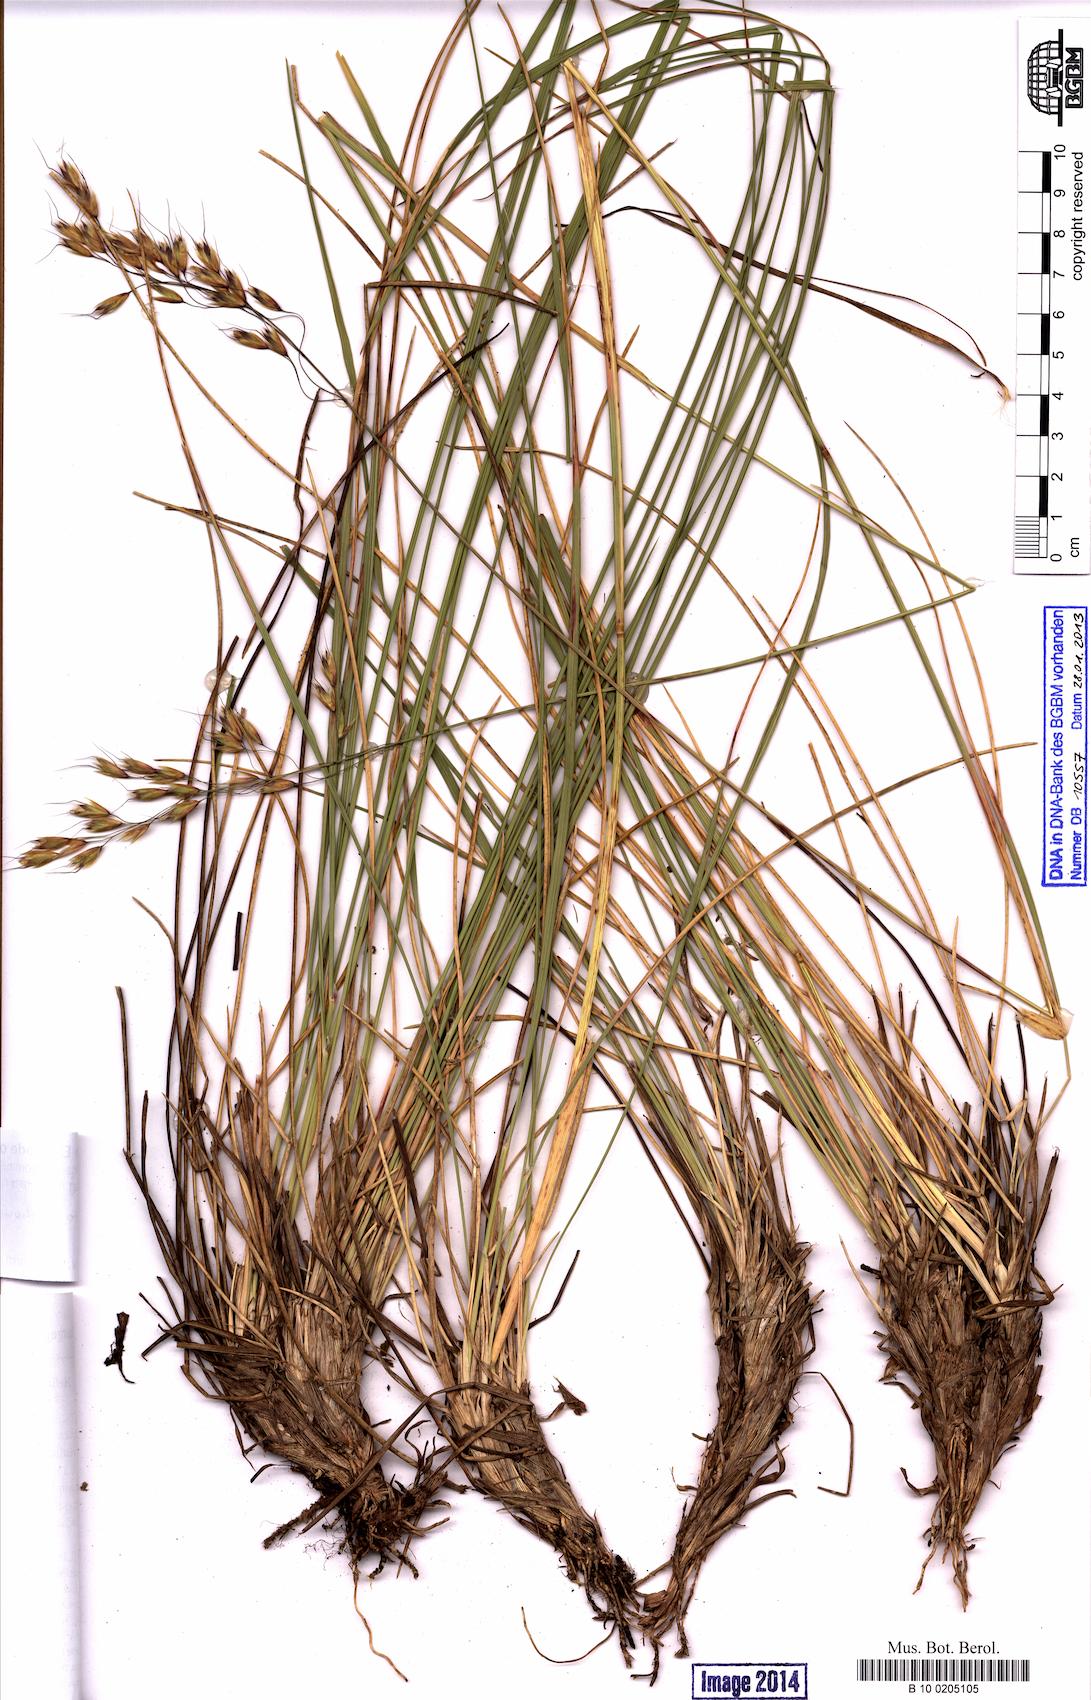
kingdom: Plantae
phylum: Tracheophyta
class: Liliopsida
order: Poales
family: Poaceae
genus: Helictotrichon
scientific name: Helictotrichon parlatorei
